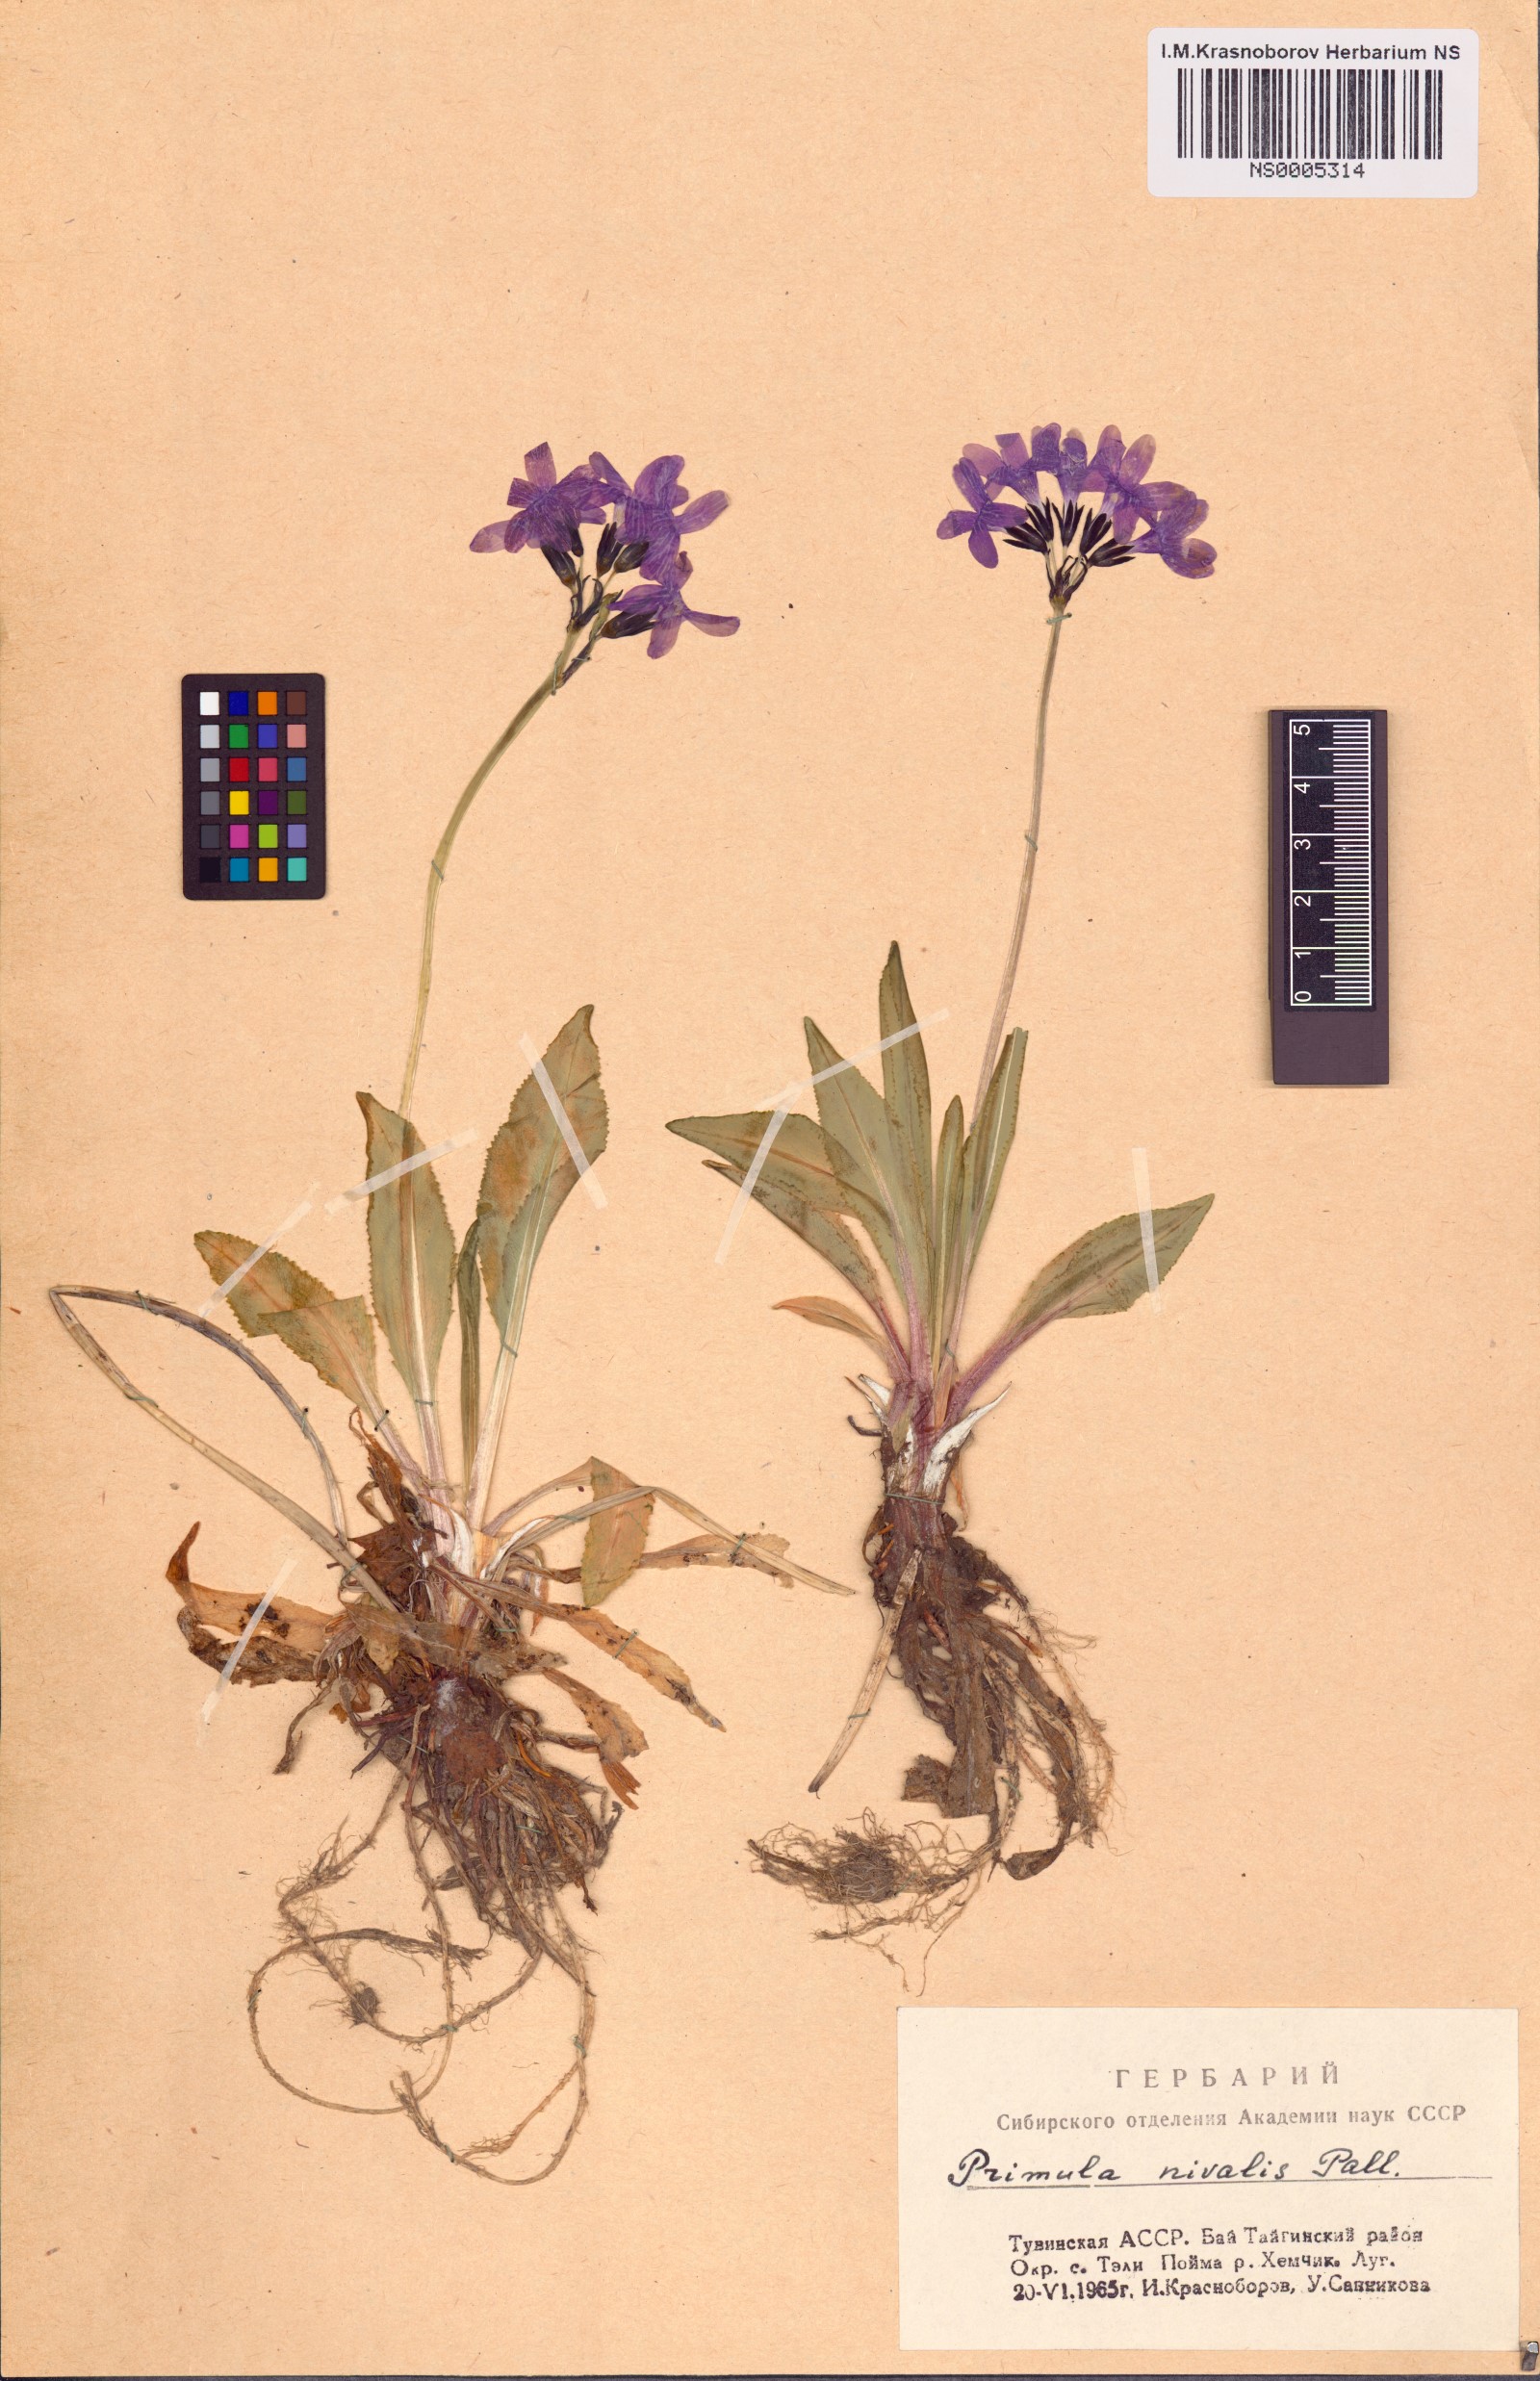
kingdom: Plantae
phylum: Tracheophyta
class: Magnoliopsida
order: Ericales
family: Primulaceae
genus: Primula
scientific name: Primula nivalis
